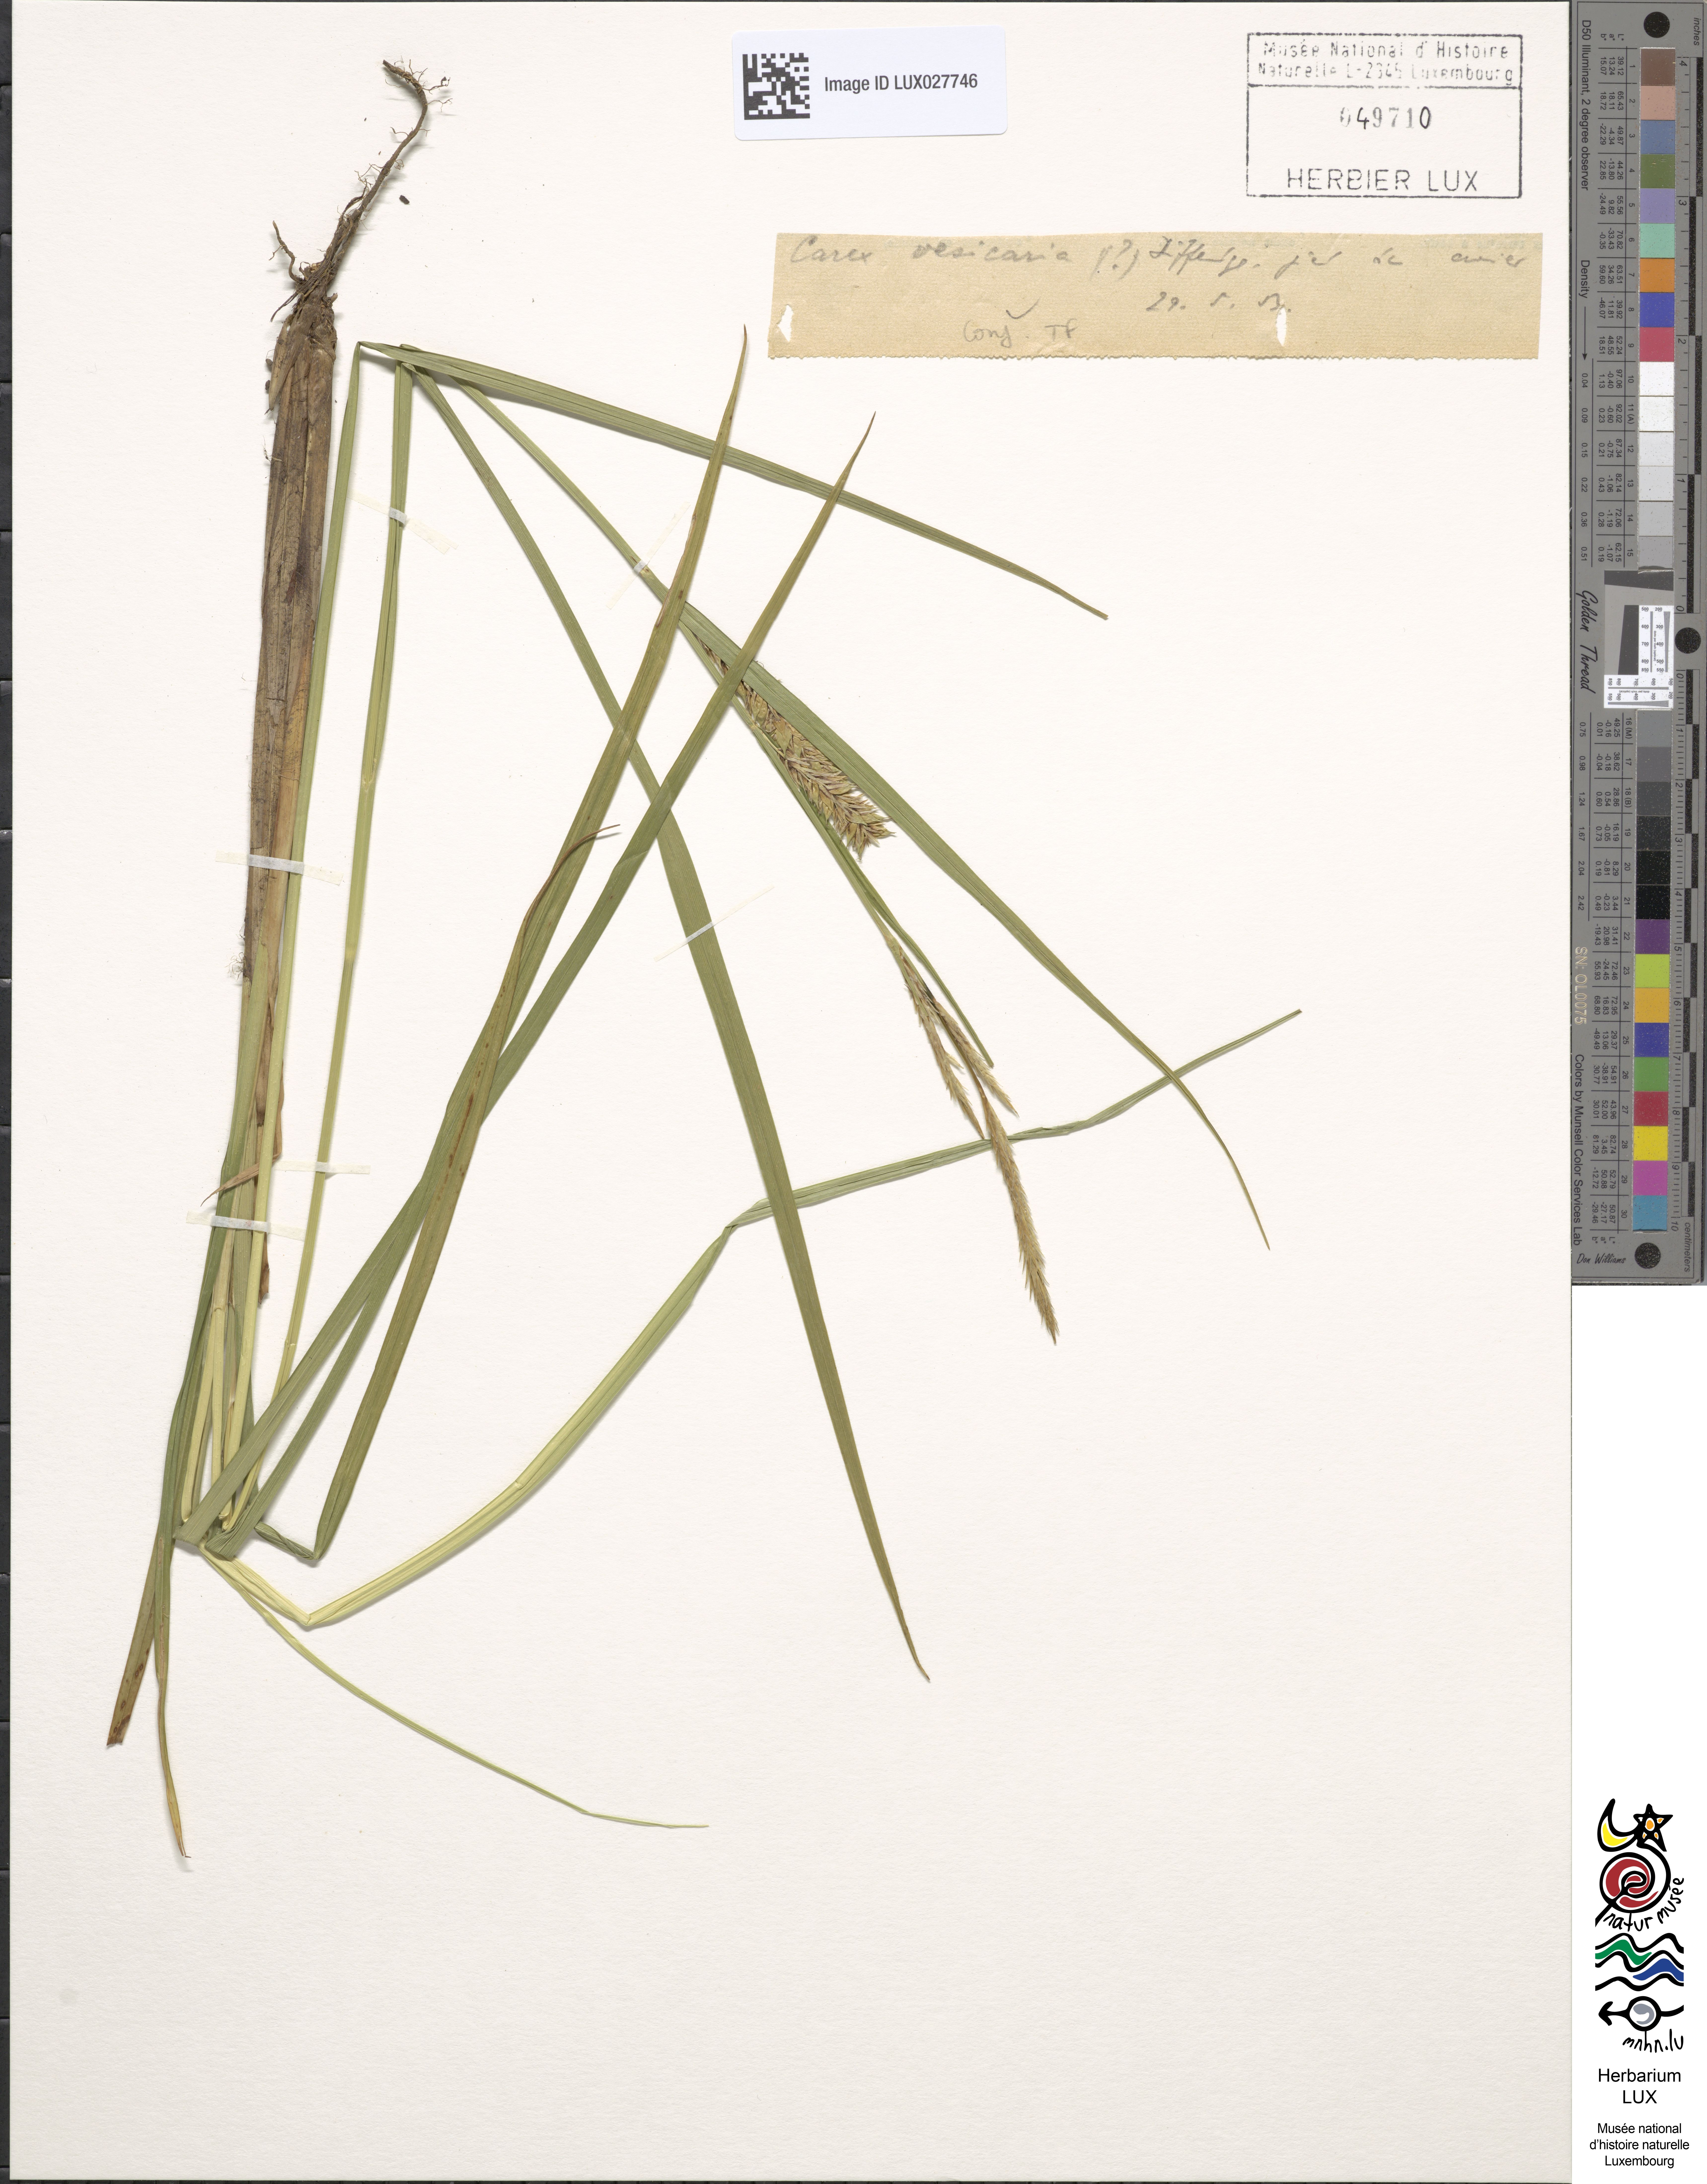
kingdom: Plantae
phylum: Tracheophyta
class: Liliopsida
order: Poales
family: Cyperaceae
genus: Carex
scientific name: Carex vesicaria
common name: Bladder-sedge
